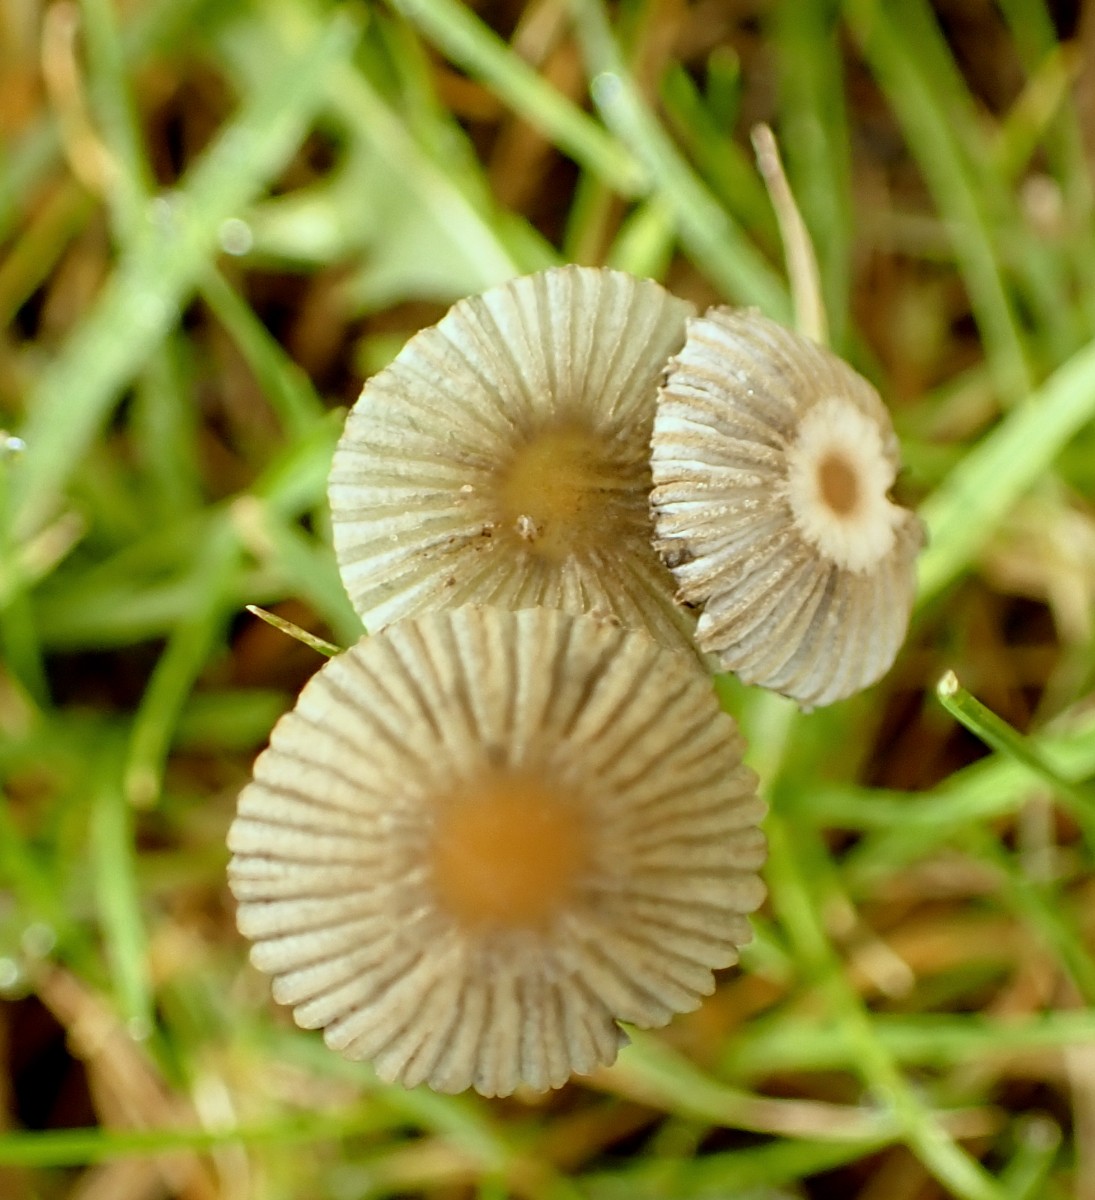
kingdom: Fungi
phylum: Basidiomycota
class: Agaricomycetes
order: Agaricales
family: Psathyrellaceae
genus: Parasola
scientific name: Parasola
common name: hjulhat
